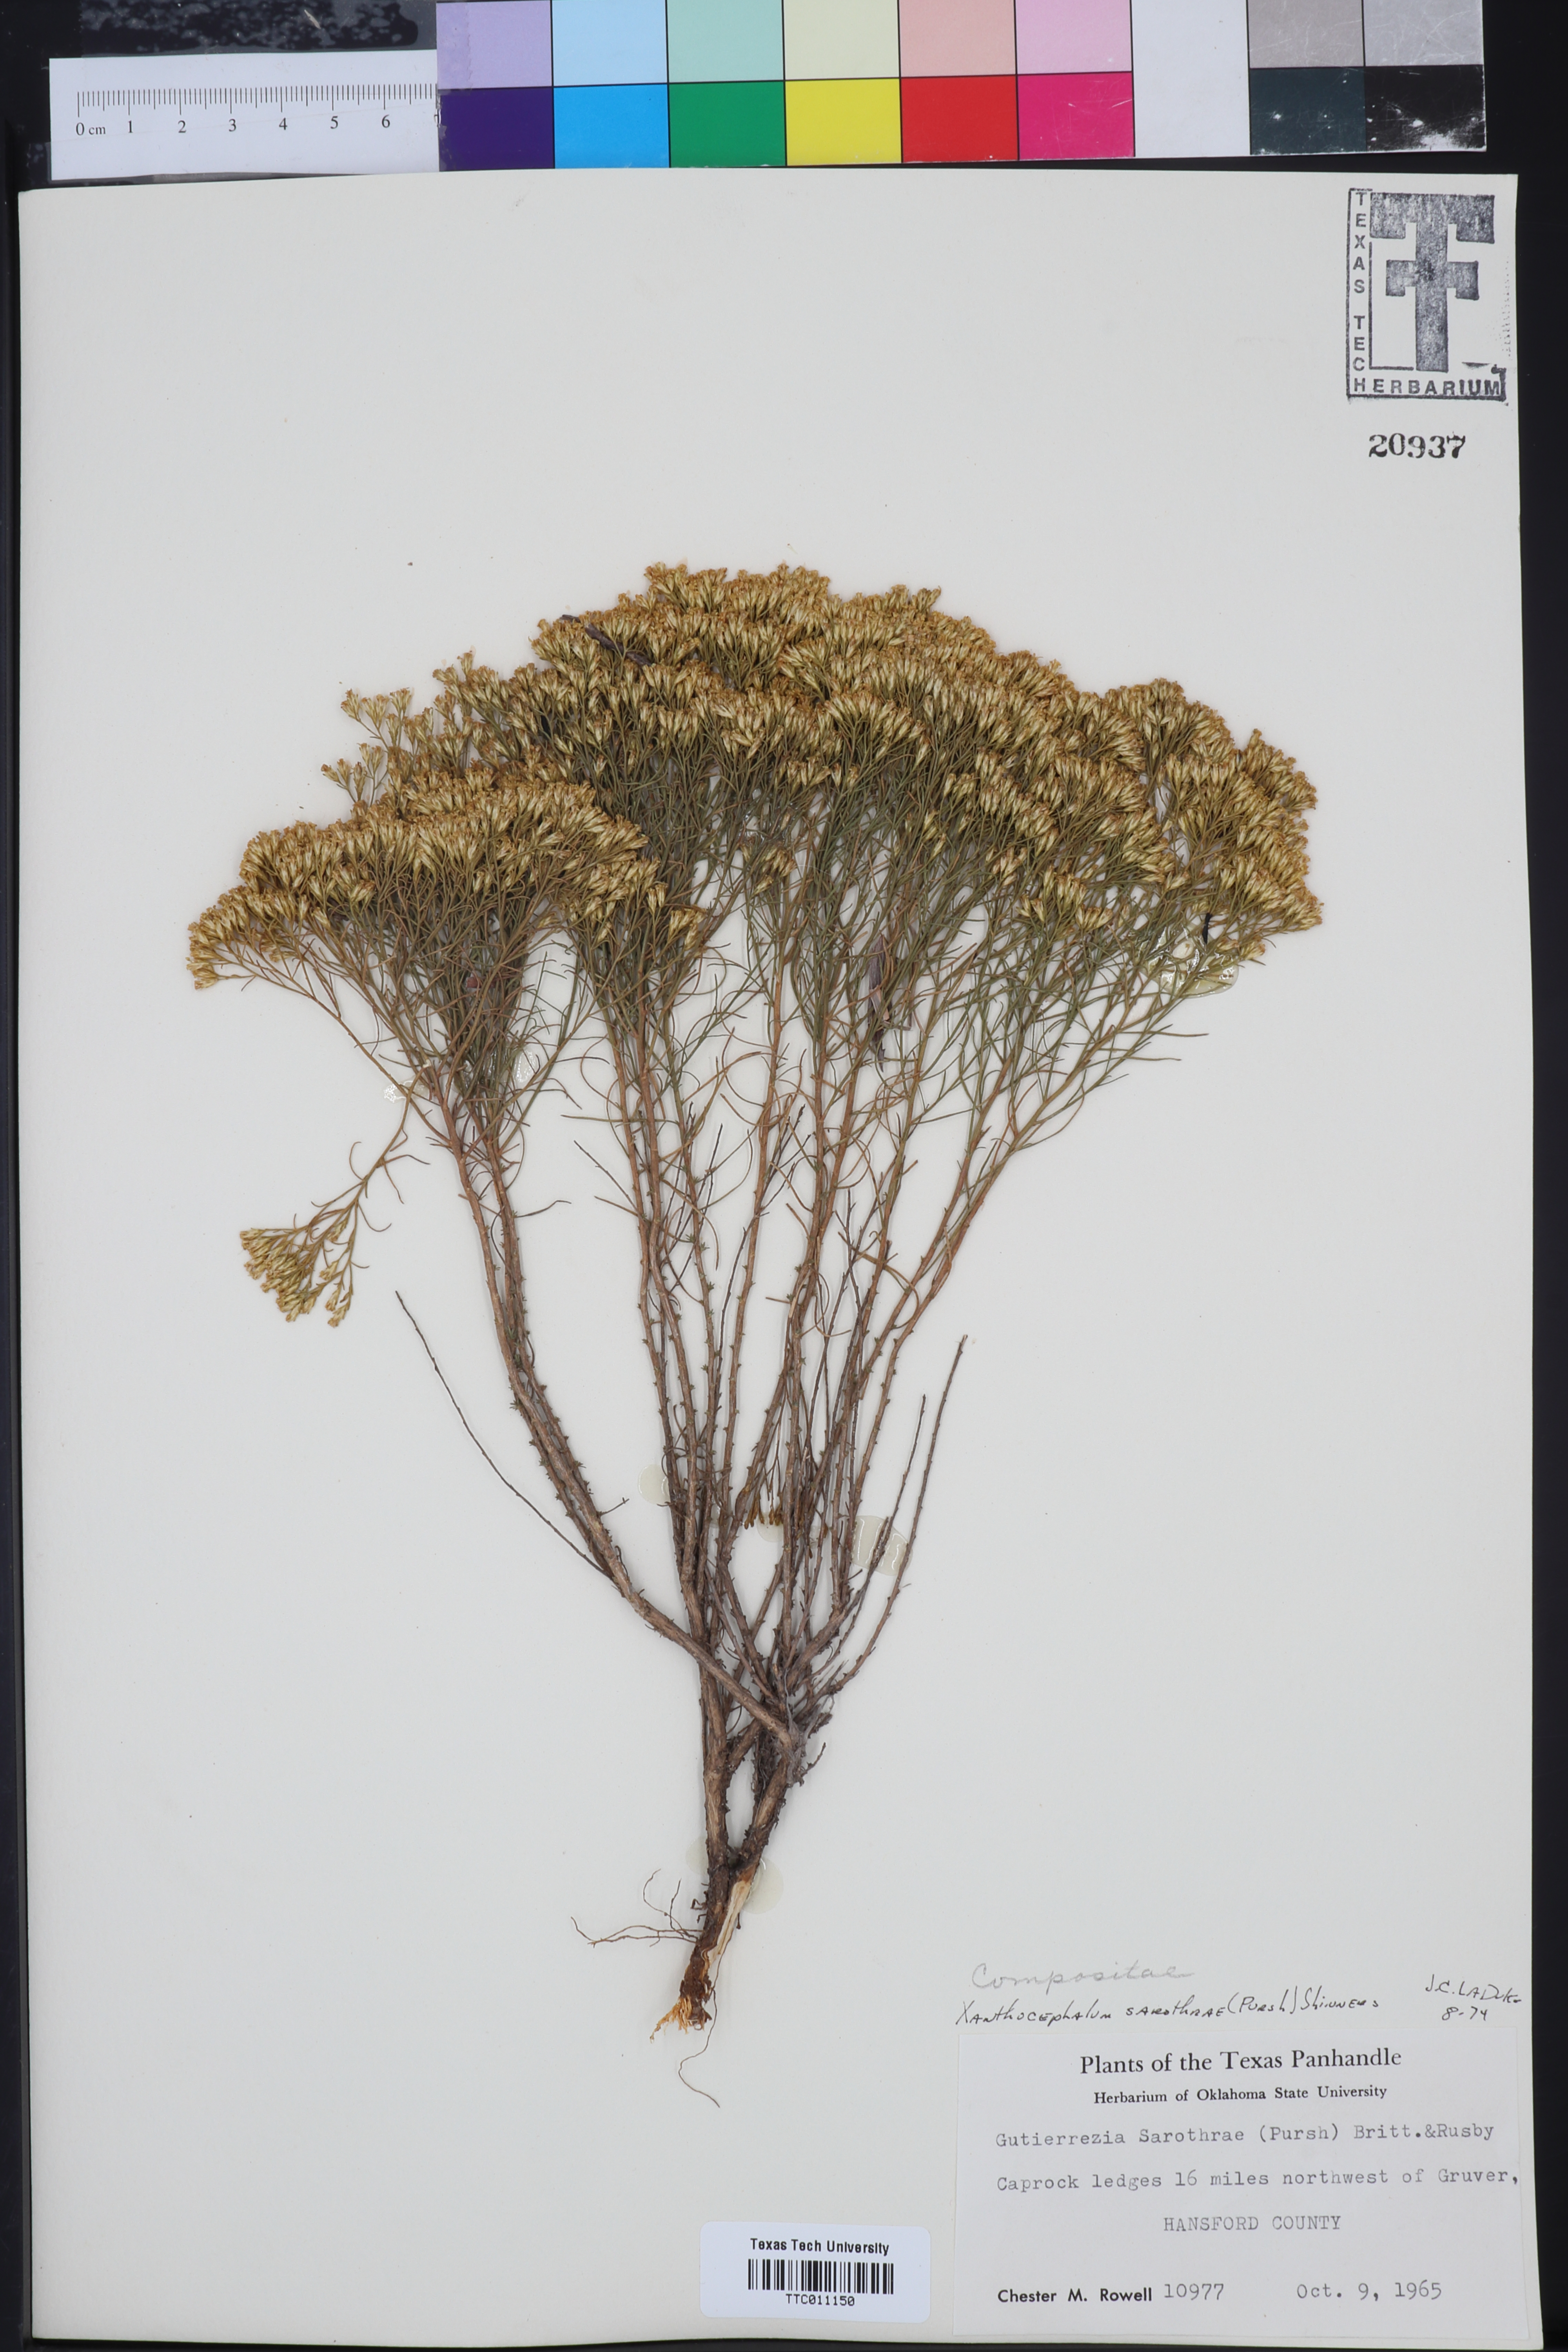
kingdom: Plantae
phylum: Tracheophyta
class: Magnoliopsida
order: Asterales
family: Asteraceae
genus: Gutierrezia
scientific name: Gutierrezia sarothrae
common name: Broom snakeweed
